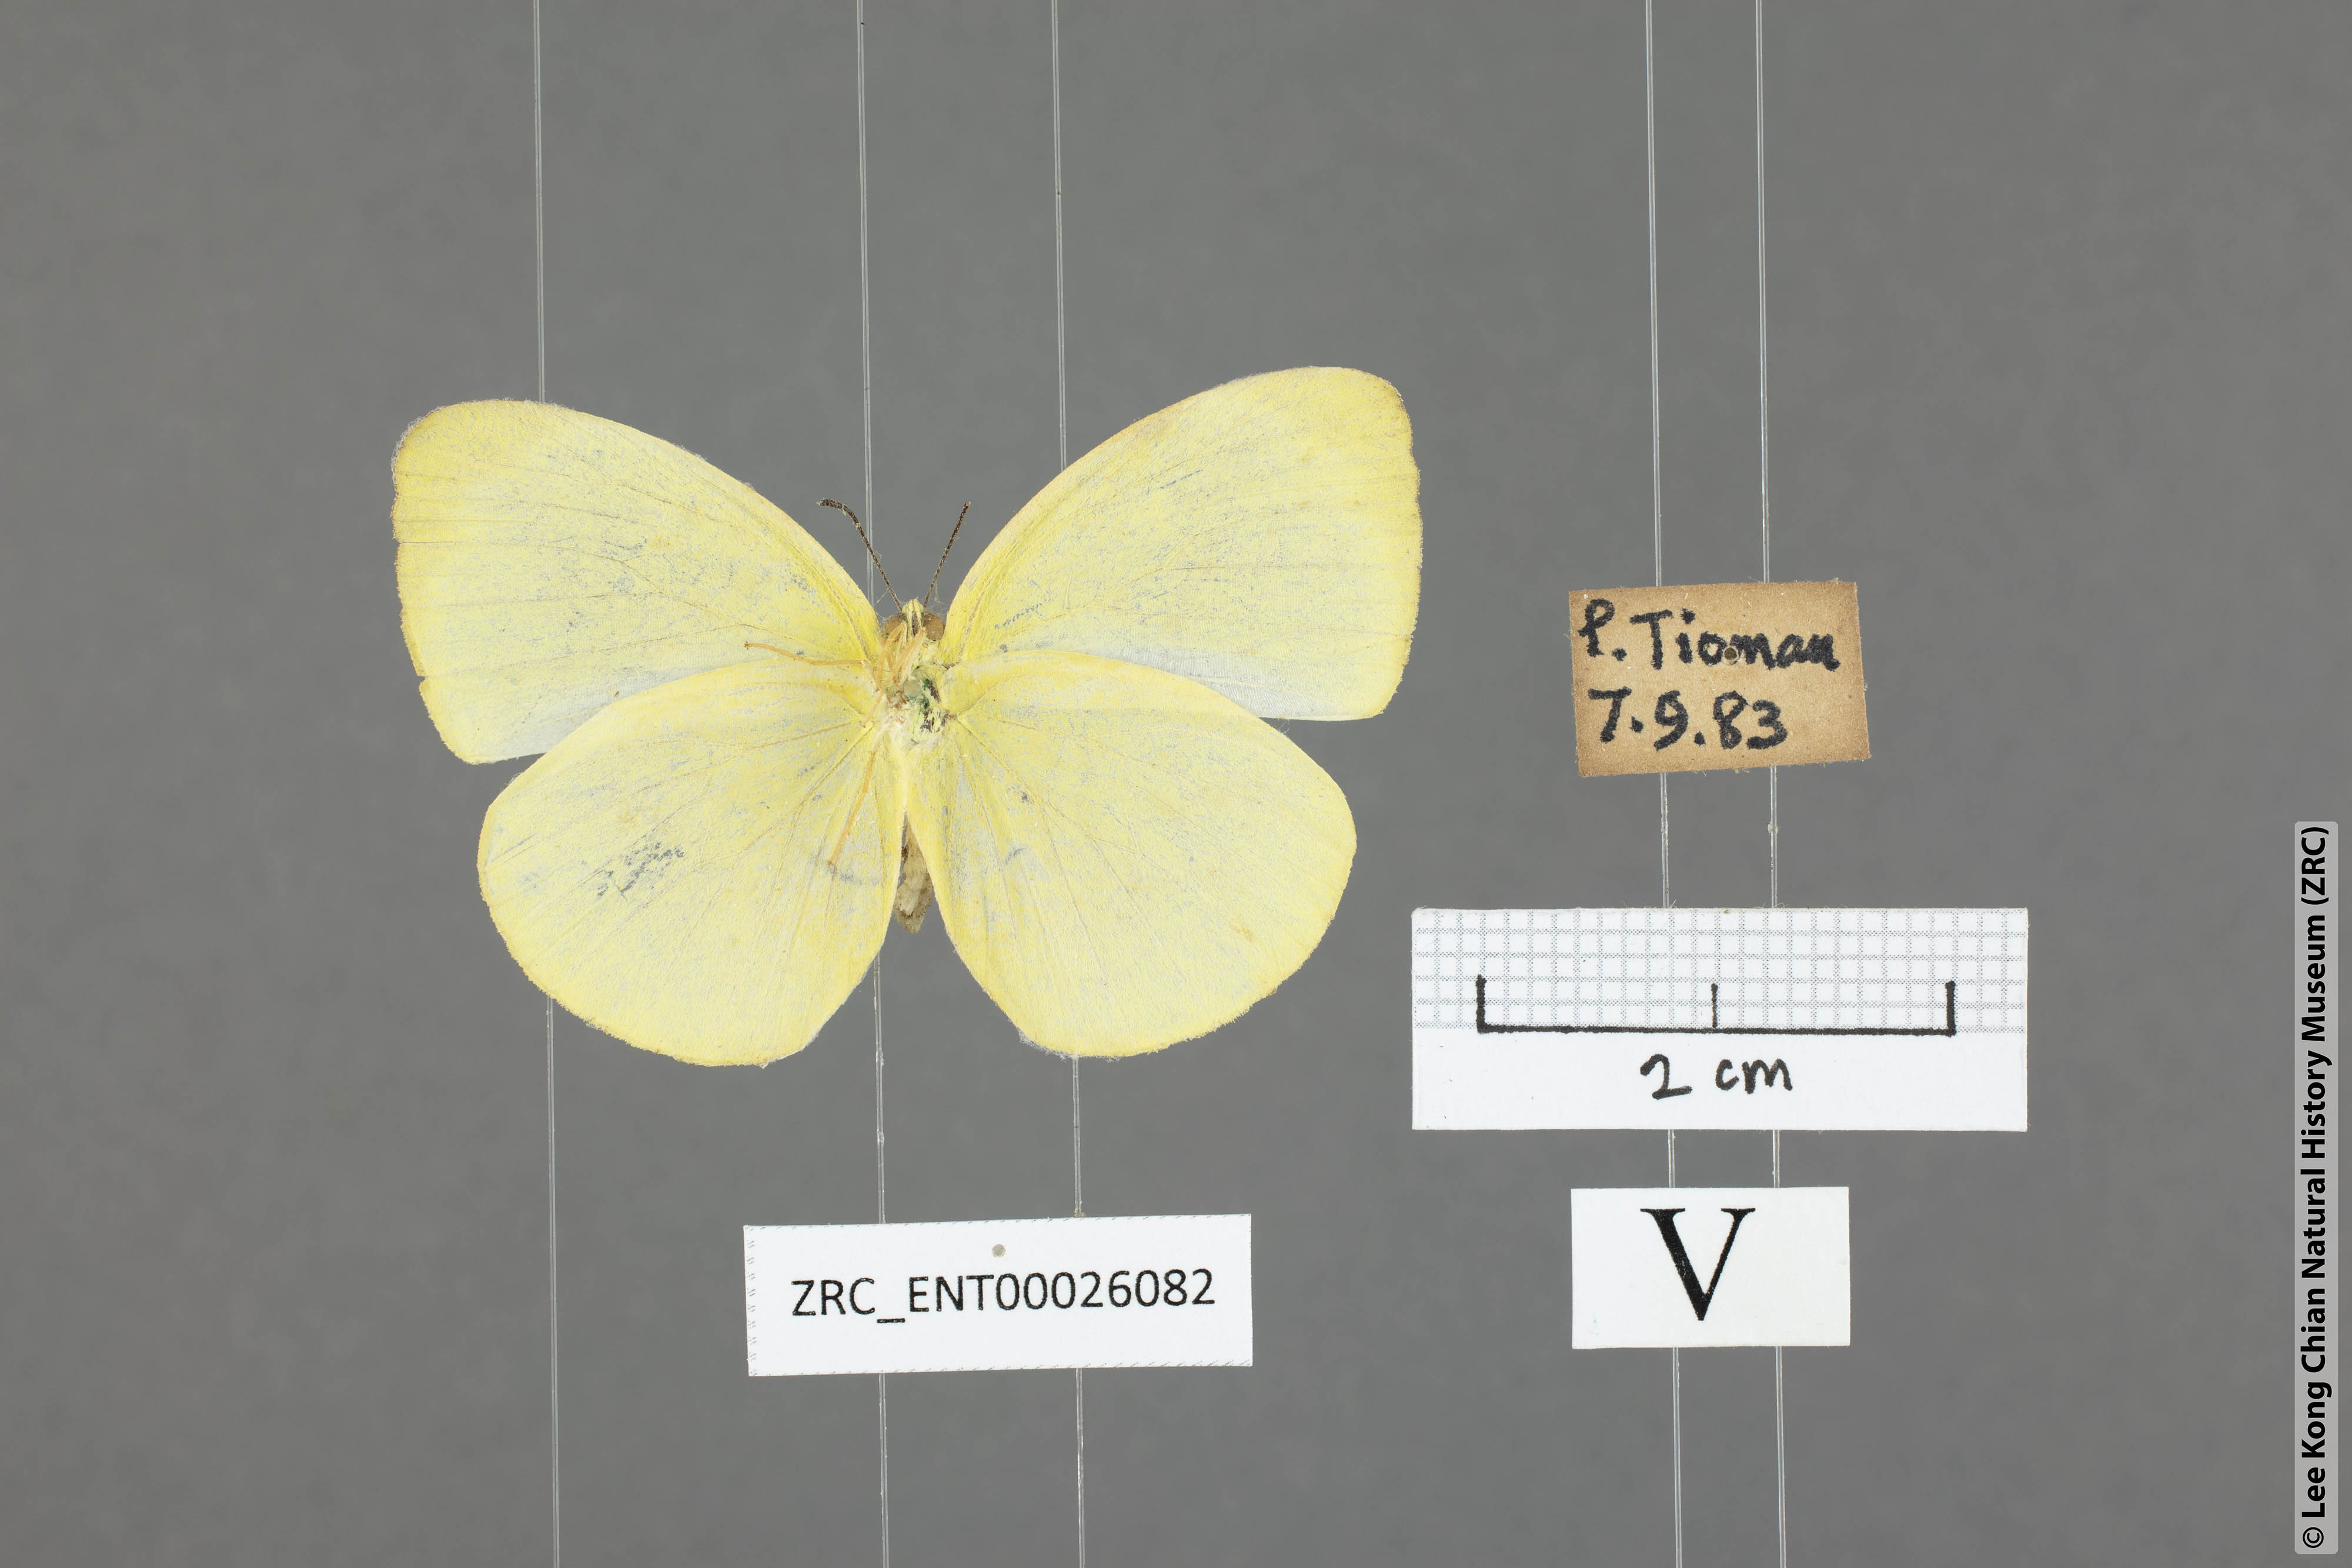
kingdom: Animalia
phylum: Arthropoda
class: Insecta
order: Lepidoptera
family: Pieridae
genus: Gandaca
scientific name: Gandaca harina
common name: Tree yellow
